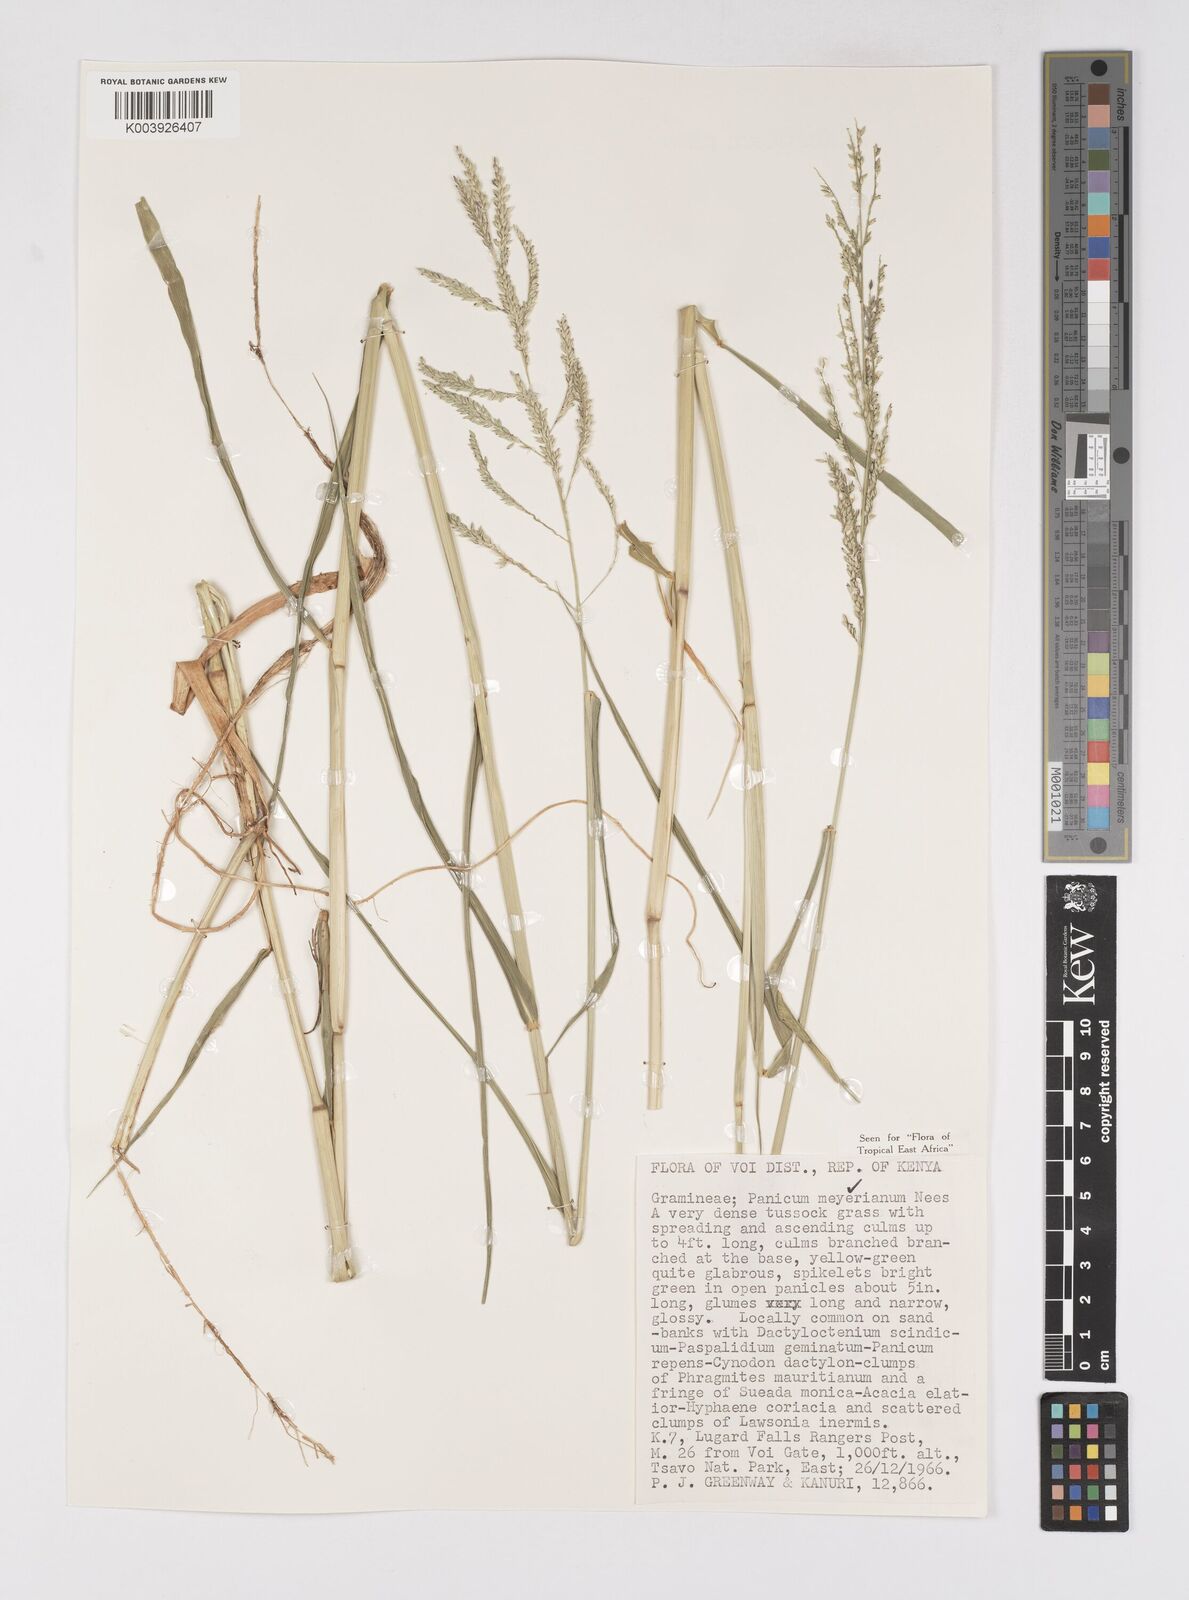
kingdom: Plantae
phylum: Tracheophyta
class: Liliopsida
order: Poales
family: Poaceae
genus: Eriochloa
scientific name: Eriochloa meyeriana
